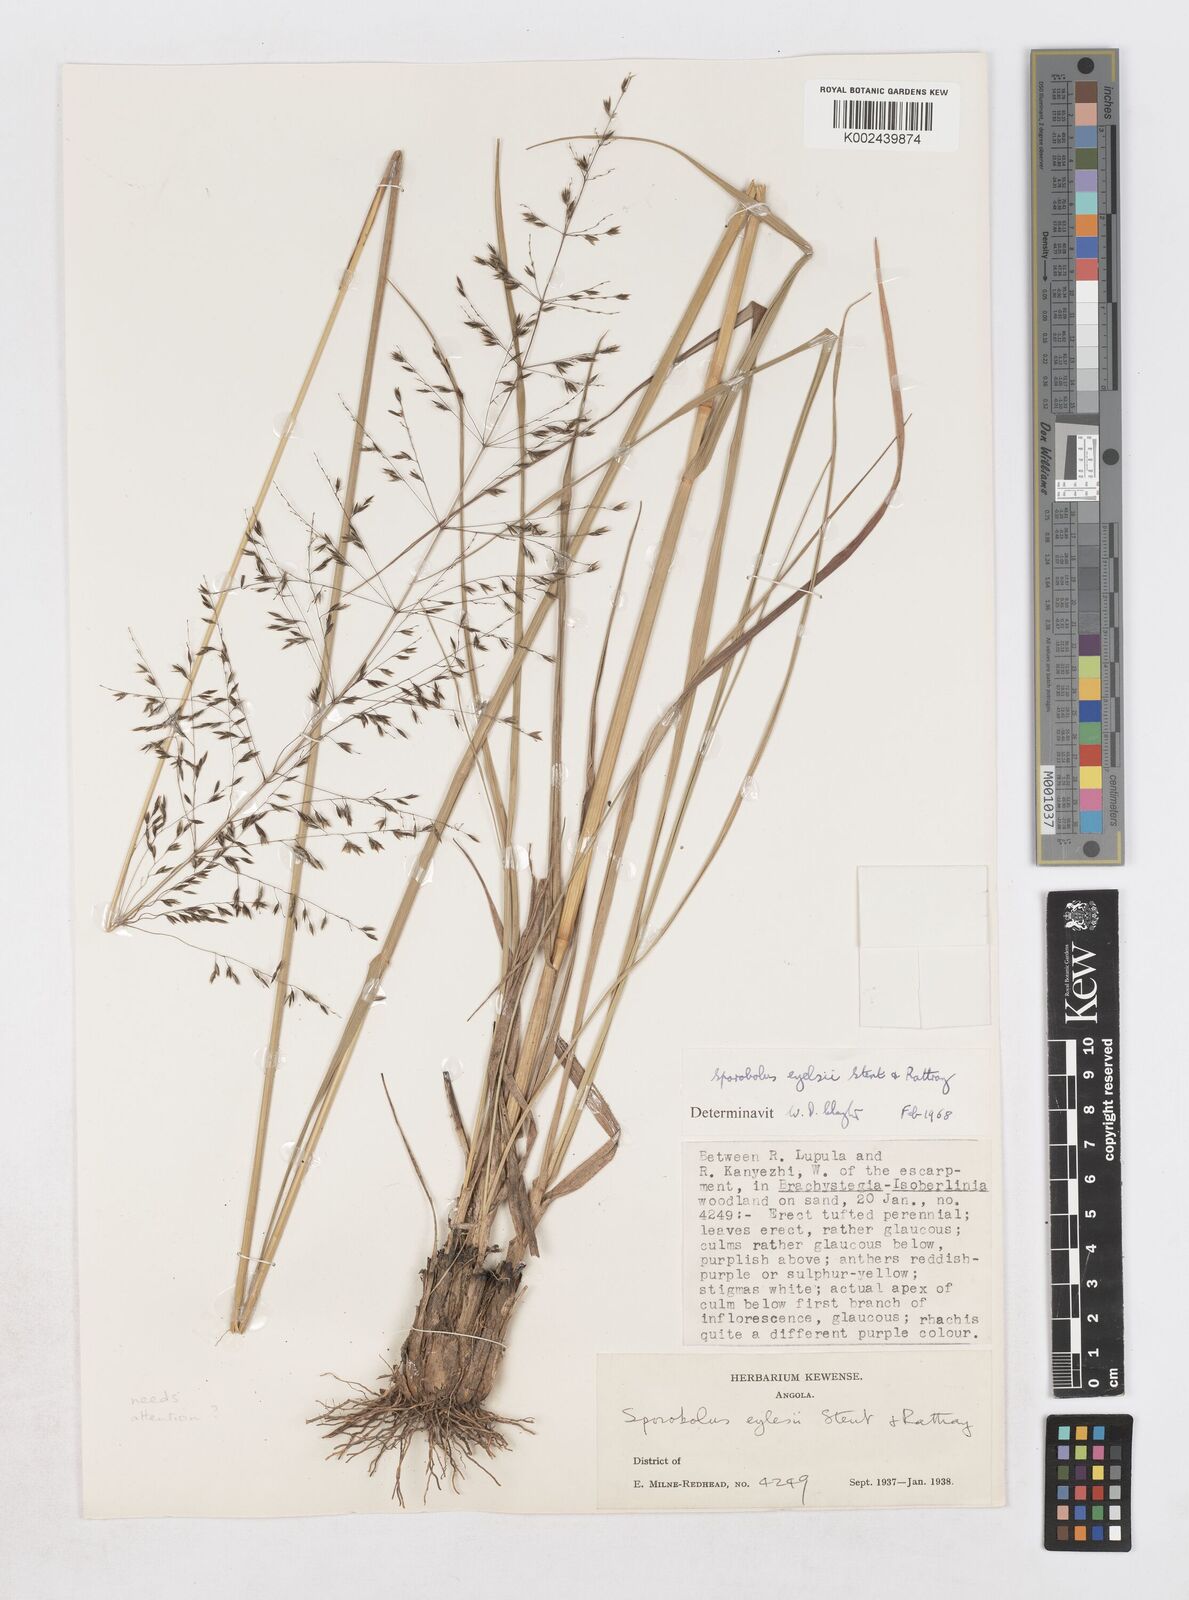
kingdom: Plantae
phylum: Tracheophyta
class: Liliopsida
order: Poales
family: Poaceae
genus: Sporobolus
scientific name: Sporobolus congoensis
